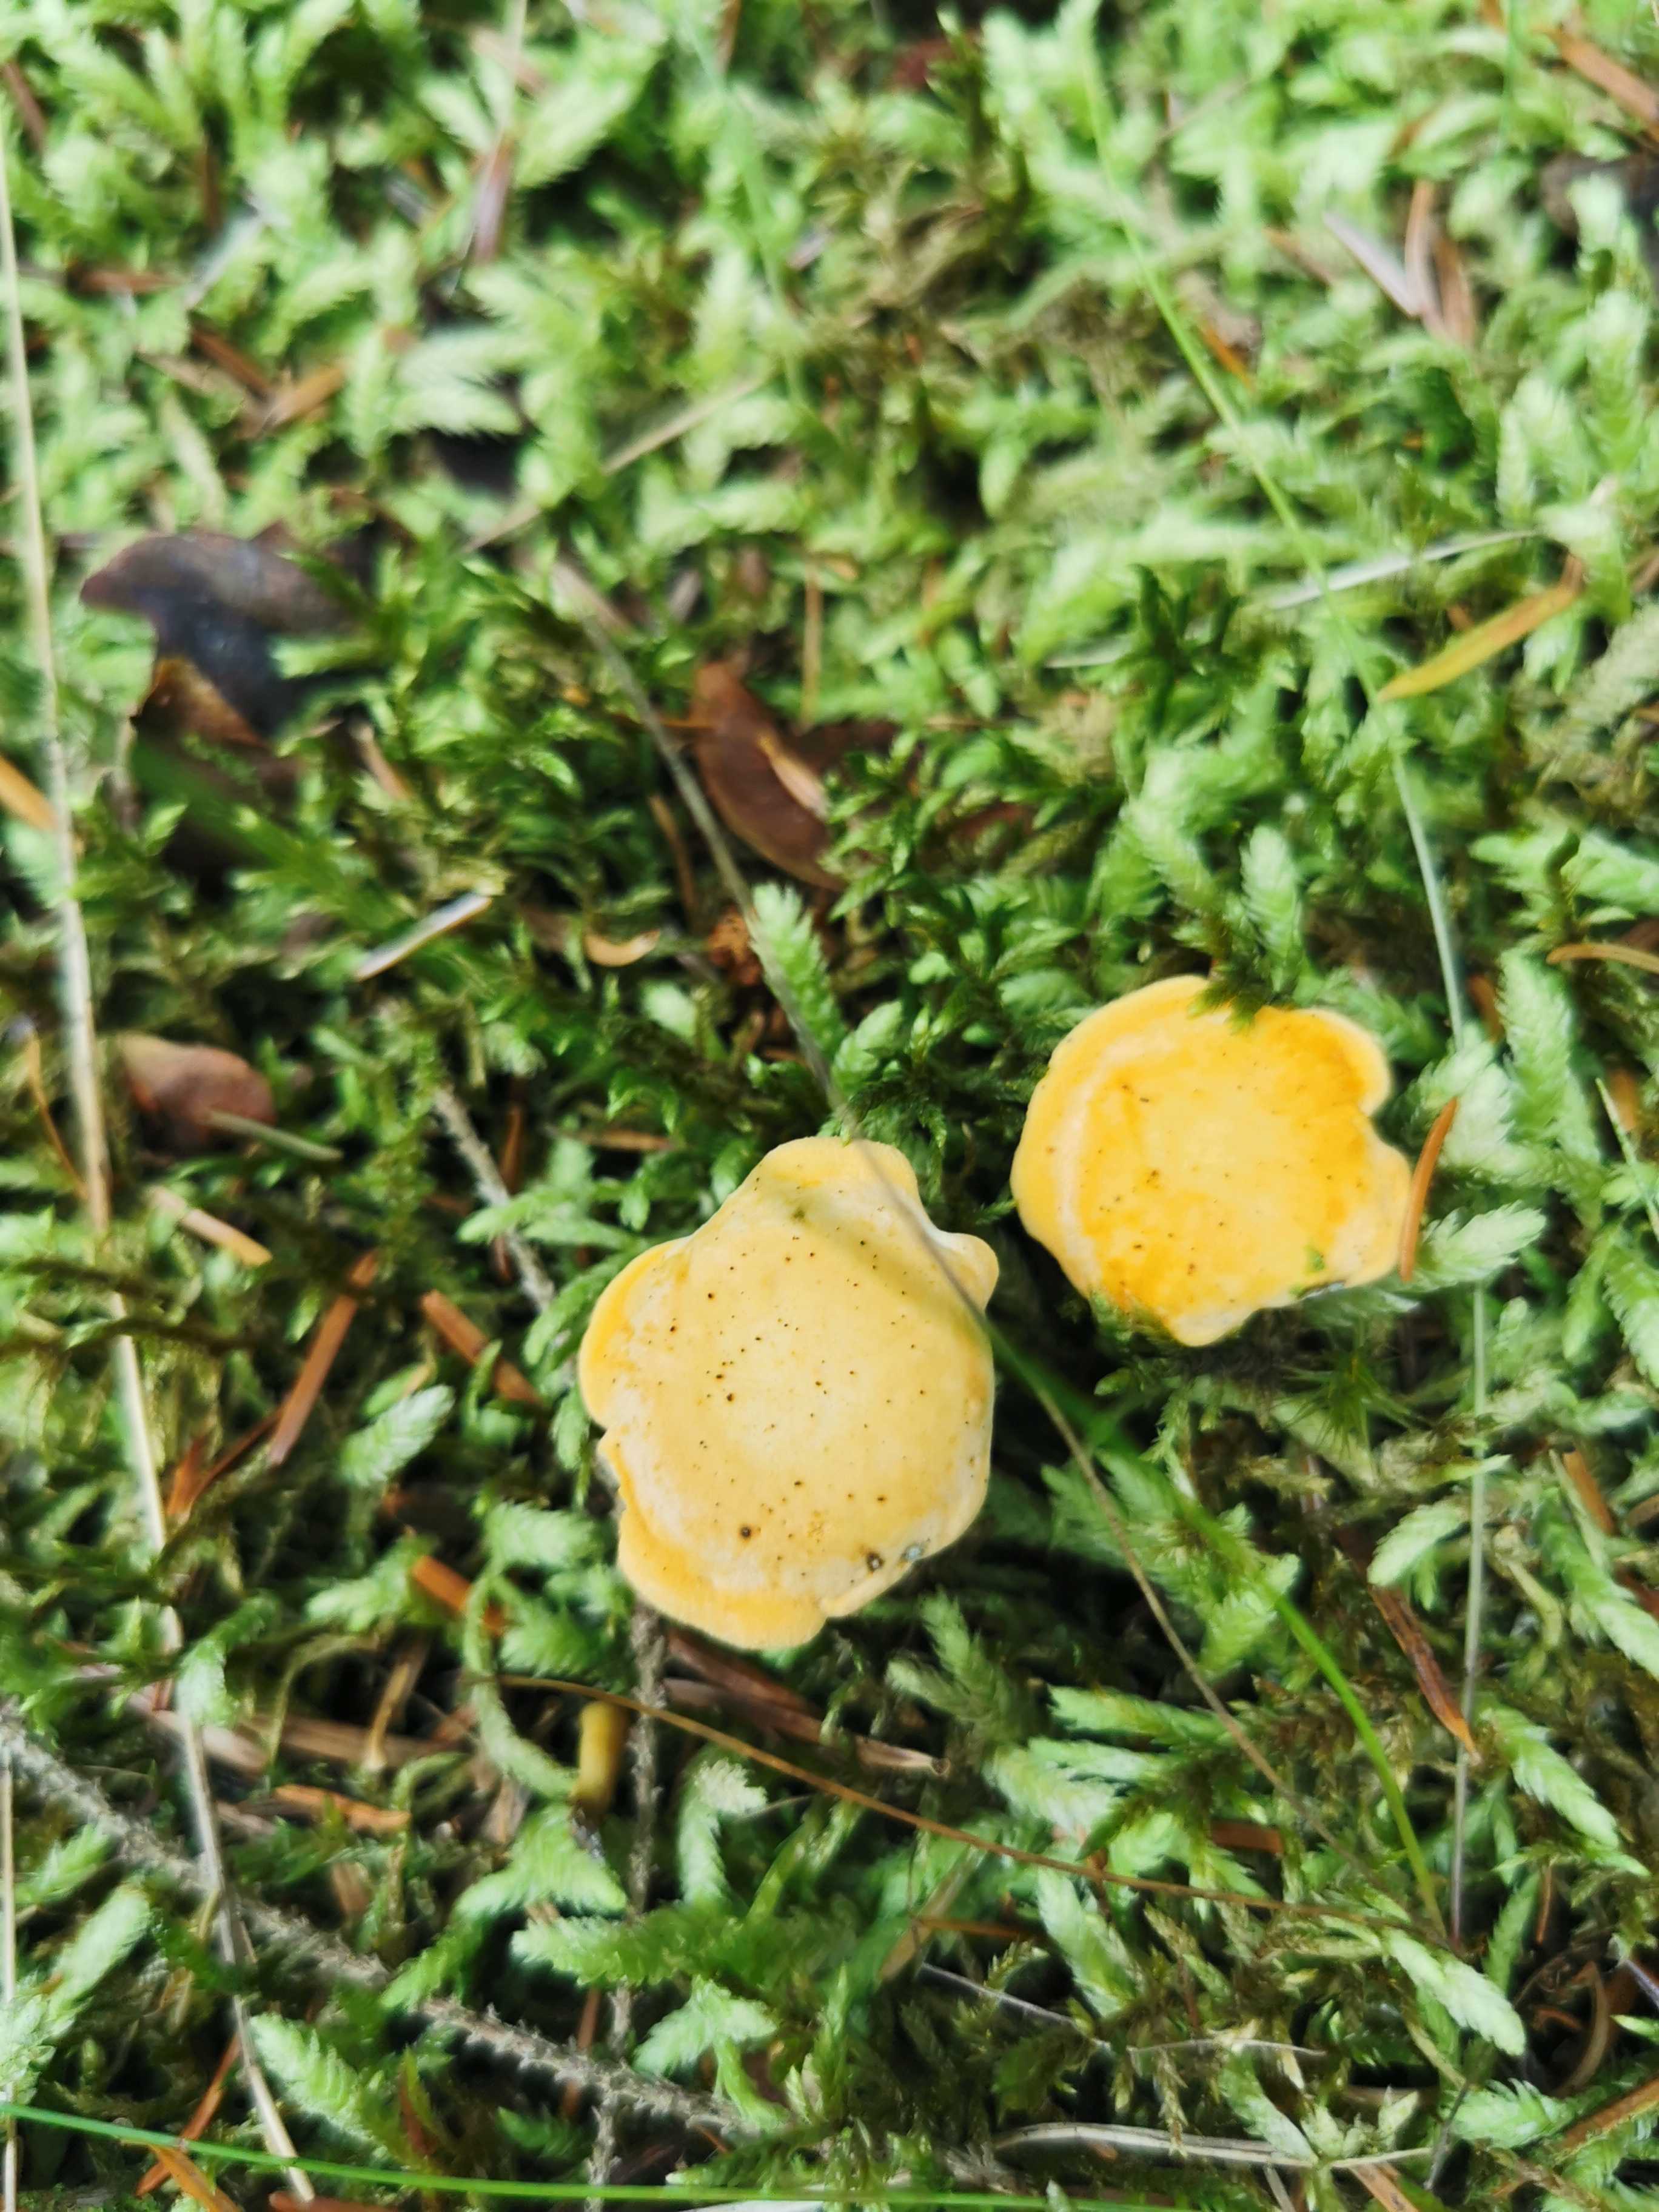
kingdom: Fungi
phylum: Basidiomycota
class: Agaricomycetes
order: Cantharellales
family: Hydnaceae
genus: Cantharellus
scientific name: Cantharellus cibarius
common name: almindelig kantarel
